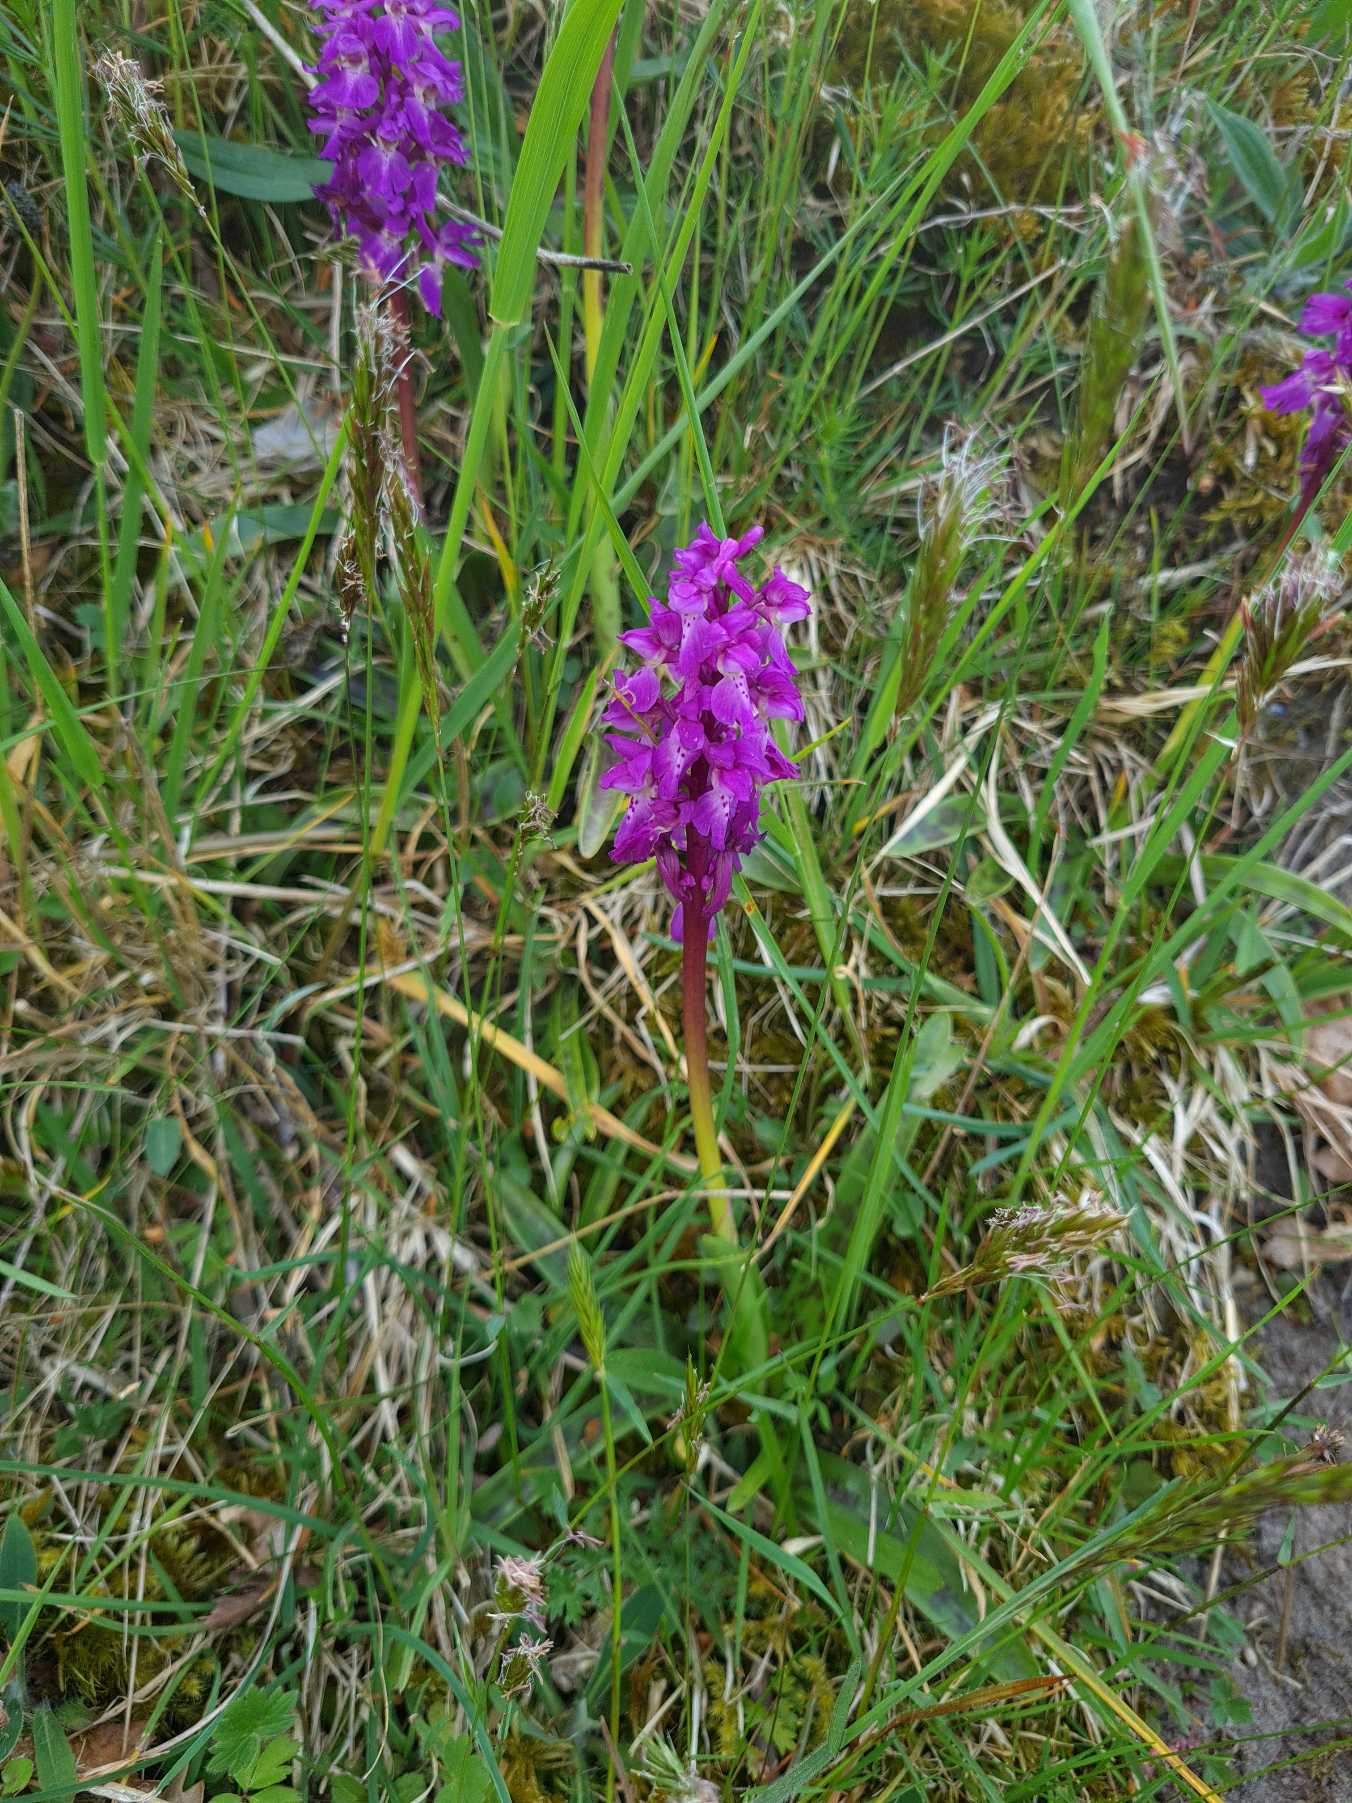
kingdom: Plantae
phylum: Tracheophyta
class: Liliopsida
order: Asparagales
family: Orchidaceae
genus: Orchis
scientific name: Orchis mascula
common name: Tyndakset gøgeurt
